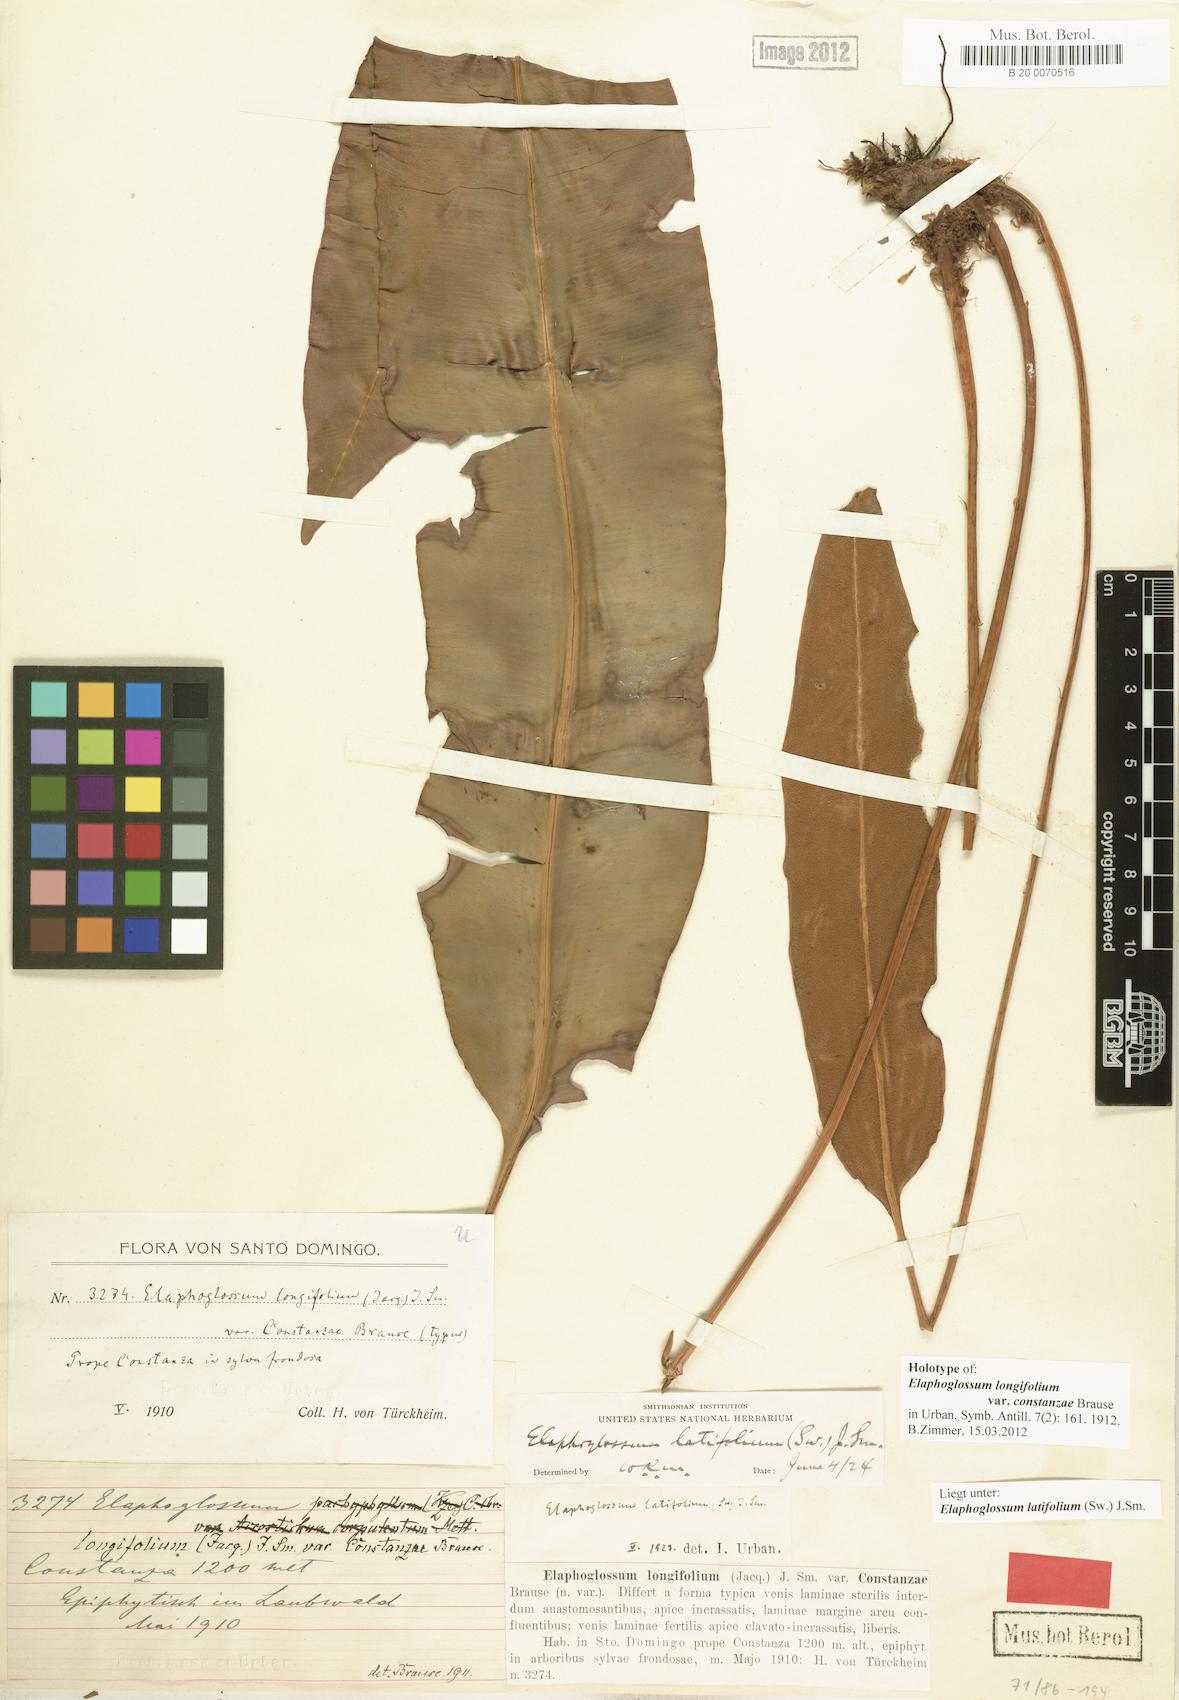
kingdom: Plantae
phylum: Tracheophyta
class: Polypodiopsida
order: Polypodiales
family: Dryopteridaceae
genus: Elaphoglossum
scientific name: Elaphoglossum latifolium
